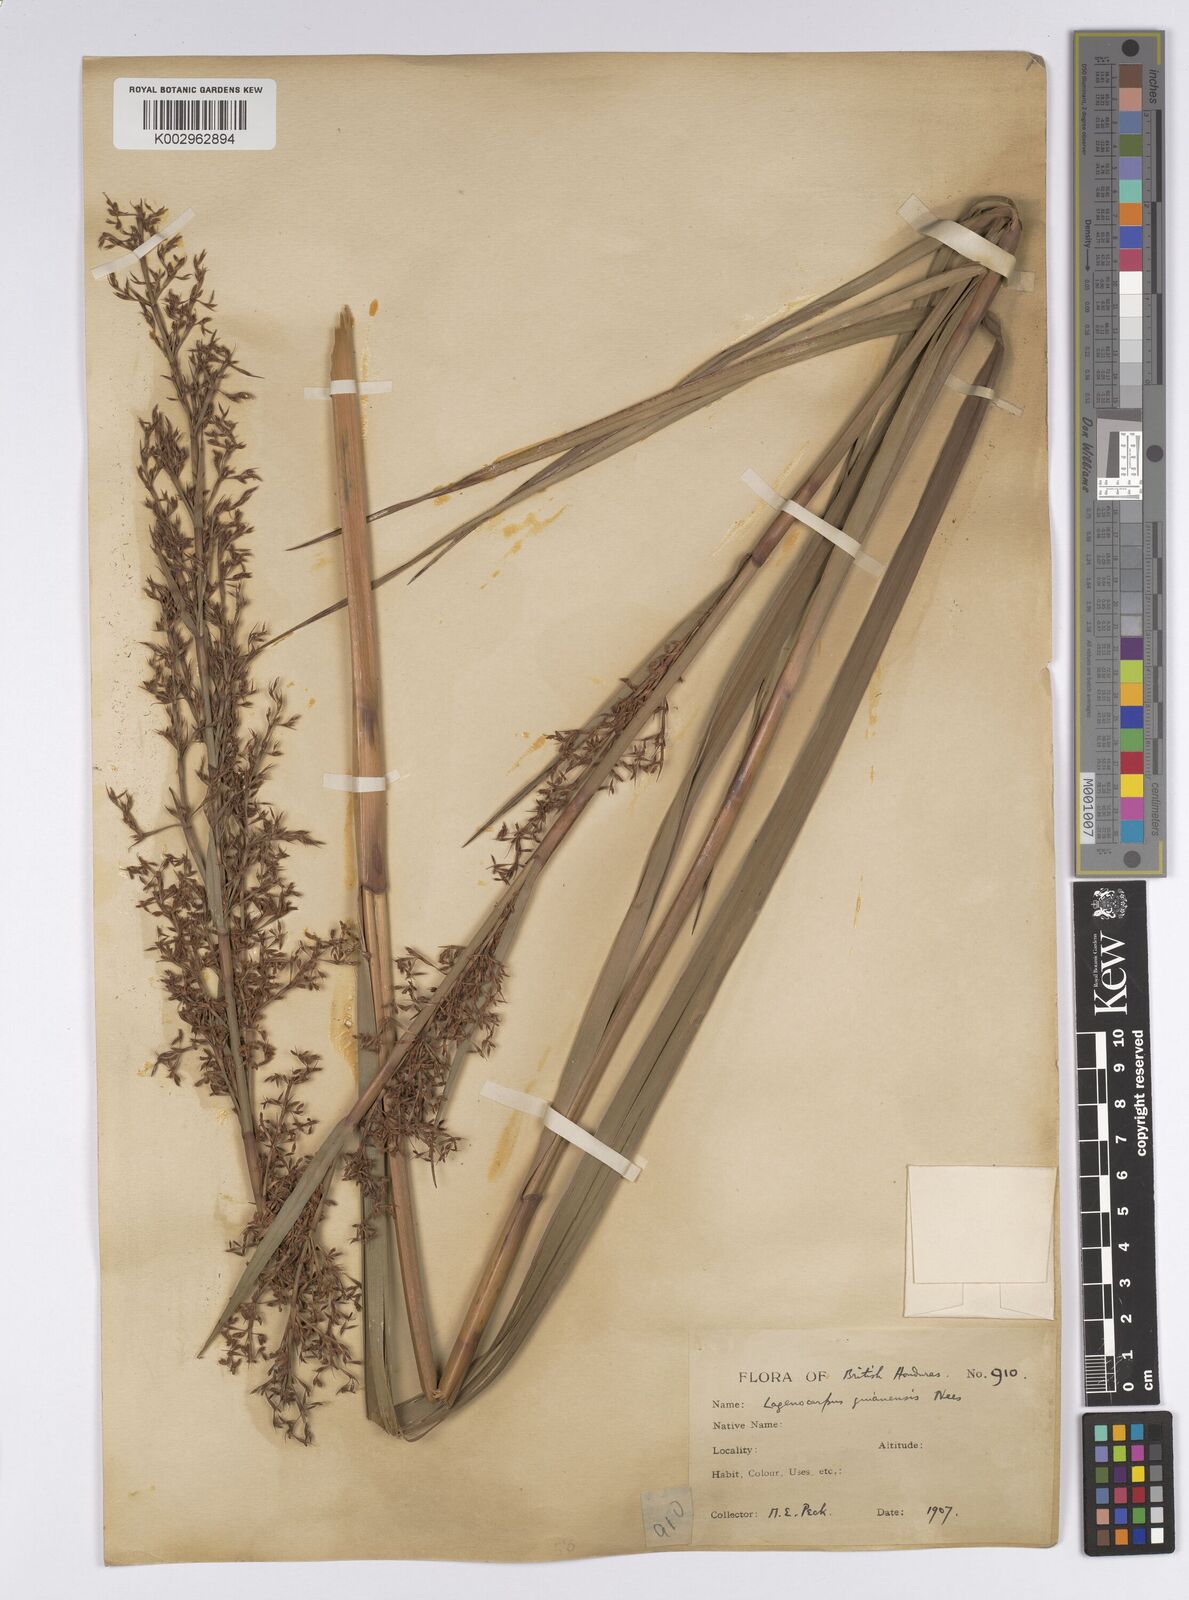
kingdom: Plantae
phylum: Tracheophyta
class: Liliopsida
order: Poales
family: Cyperaceae
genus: Lagenocarpus
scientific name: Lagenocarpus guianensis
